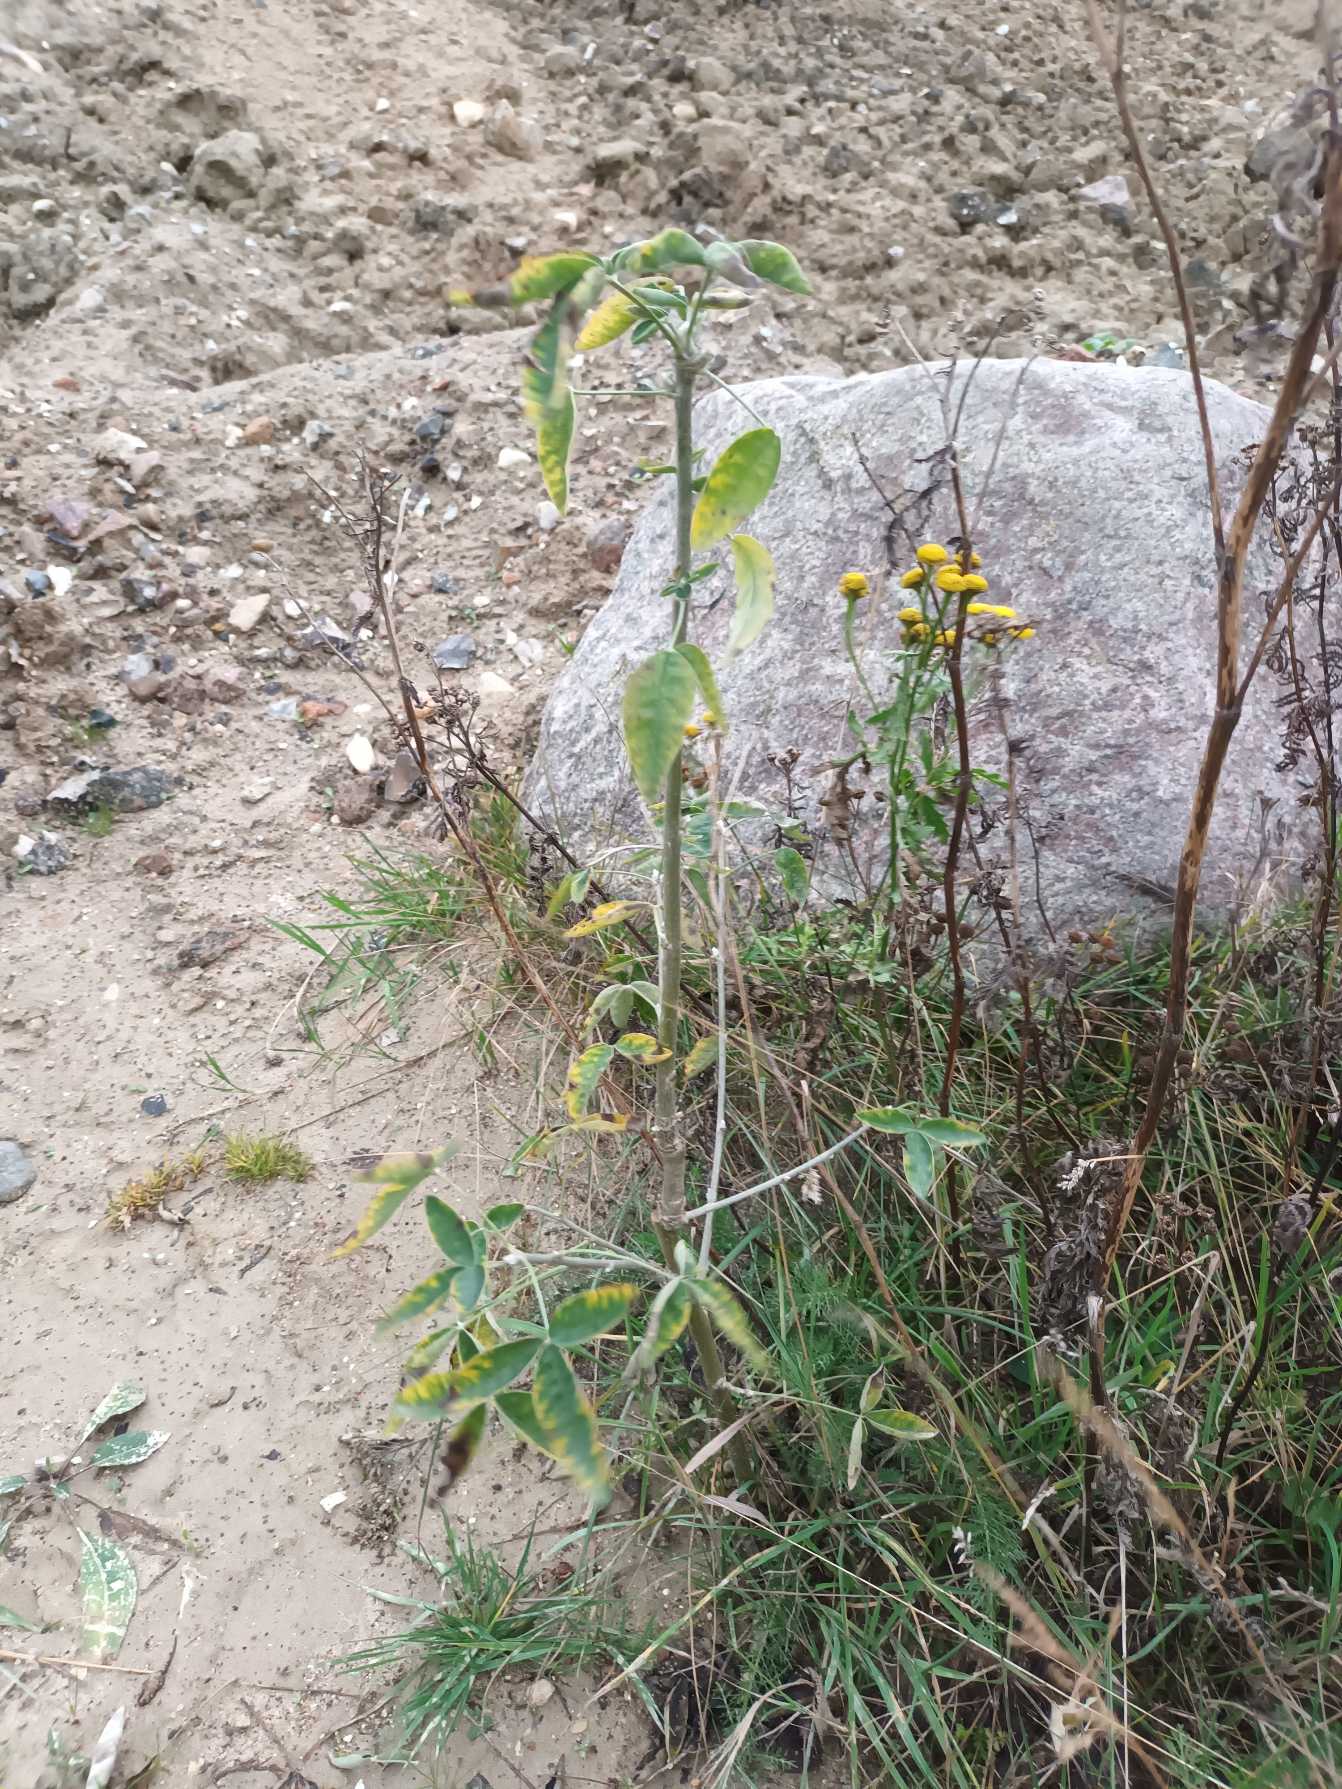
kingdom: Plantae
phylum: Tracheophyta
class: Magnoliopsida
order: Fabales
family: Fabaceae
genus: Laburnum
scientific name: Laburnum anagyroides
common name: Guldregn
